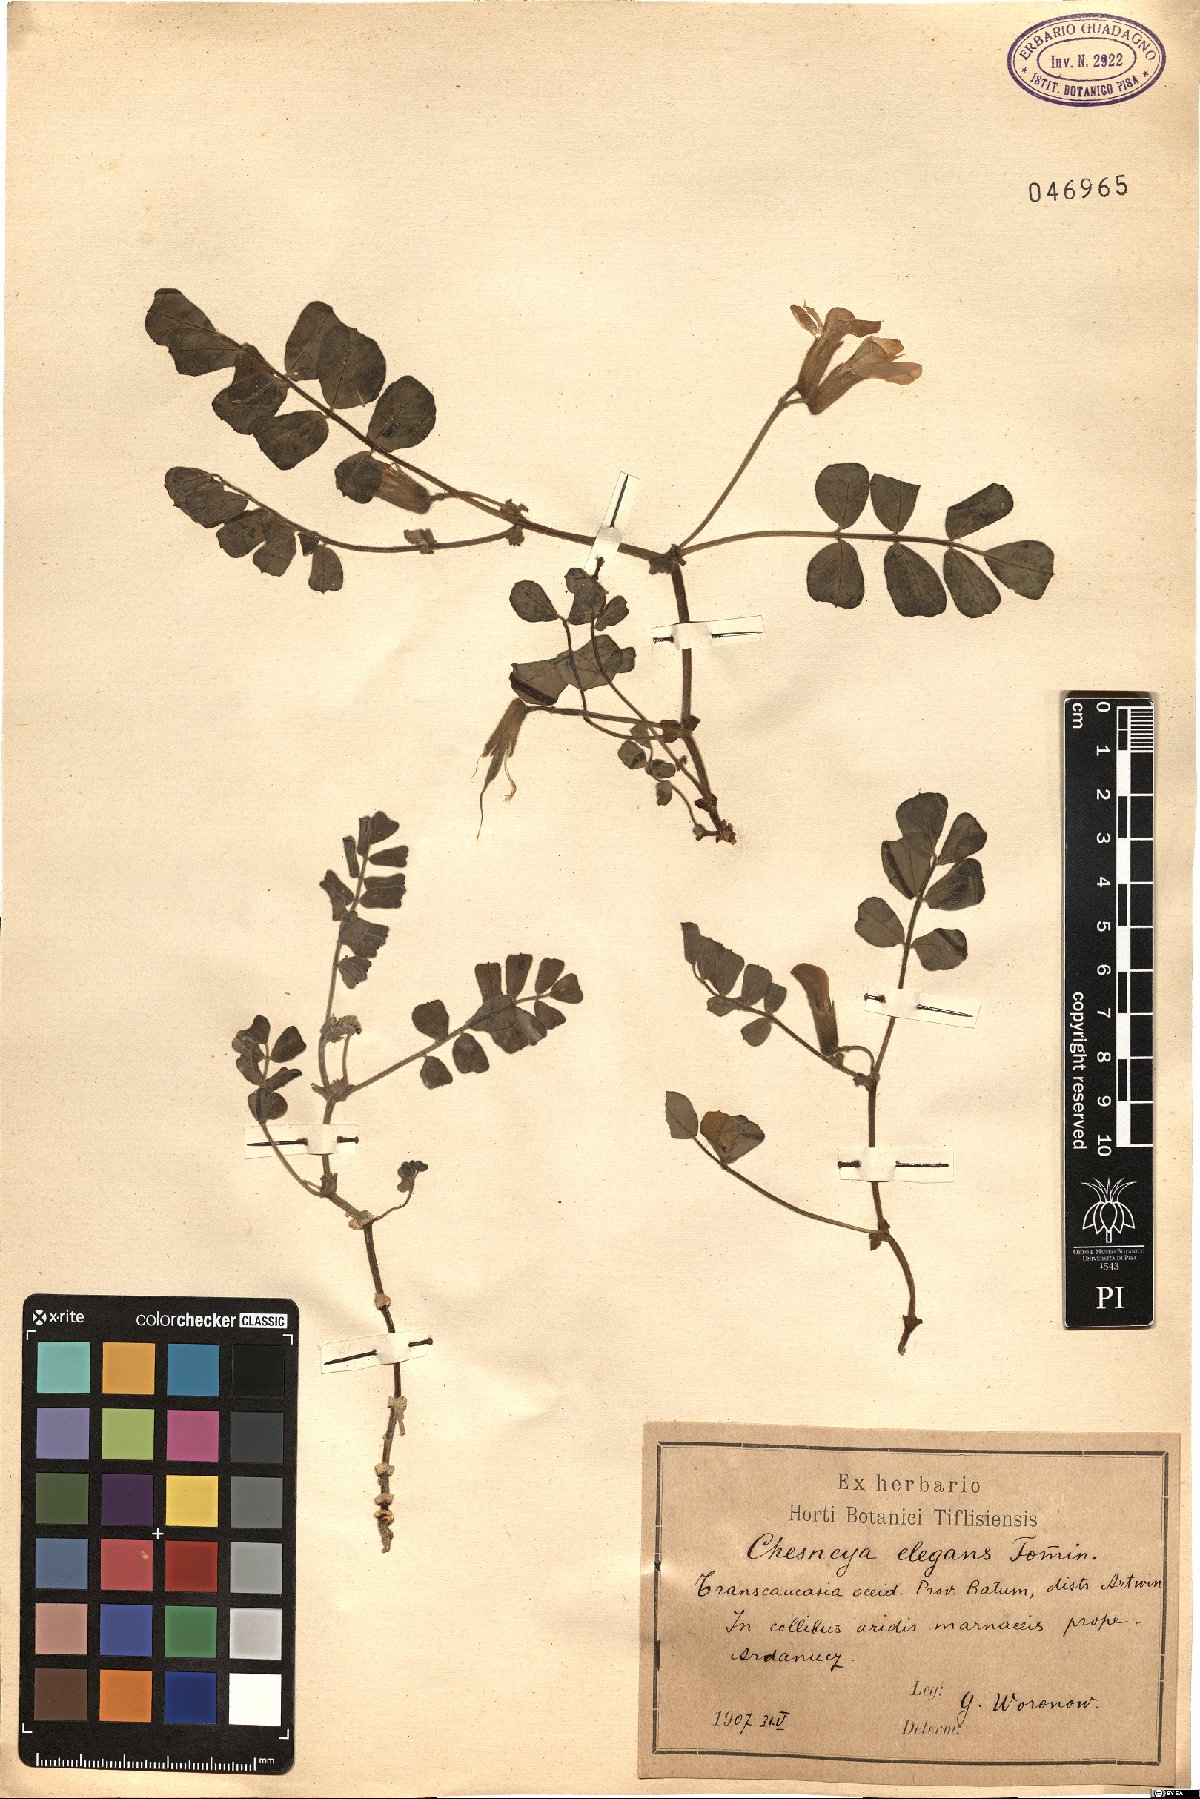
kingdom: Plantae
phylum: Tracheophyta
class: Magnoliopsida
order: Fabales
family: Fabaceae
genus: Chesneya
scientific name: Chesneya elegans
